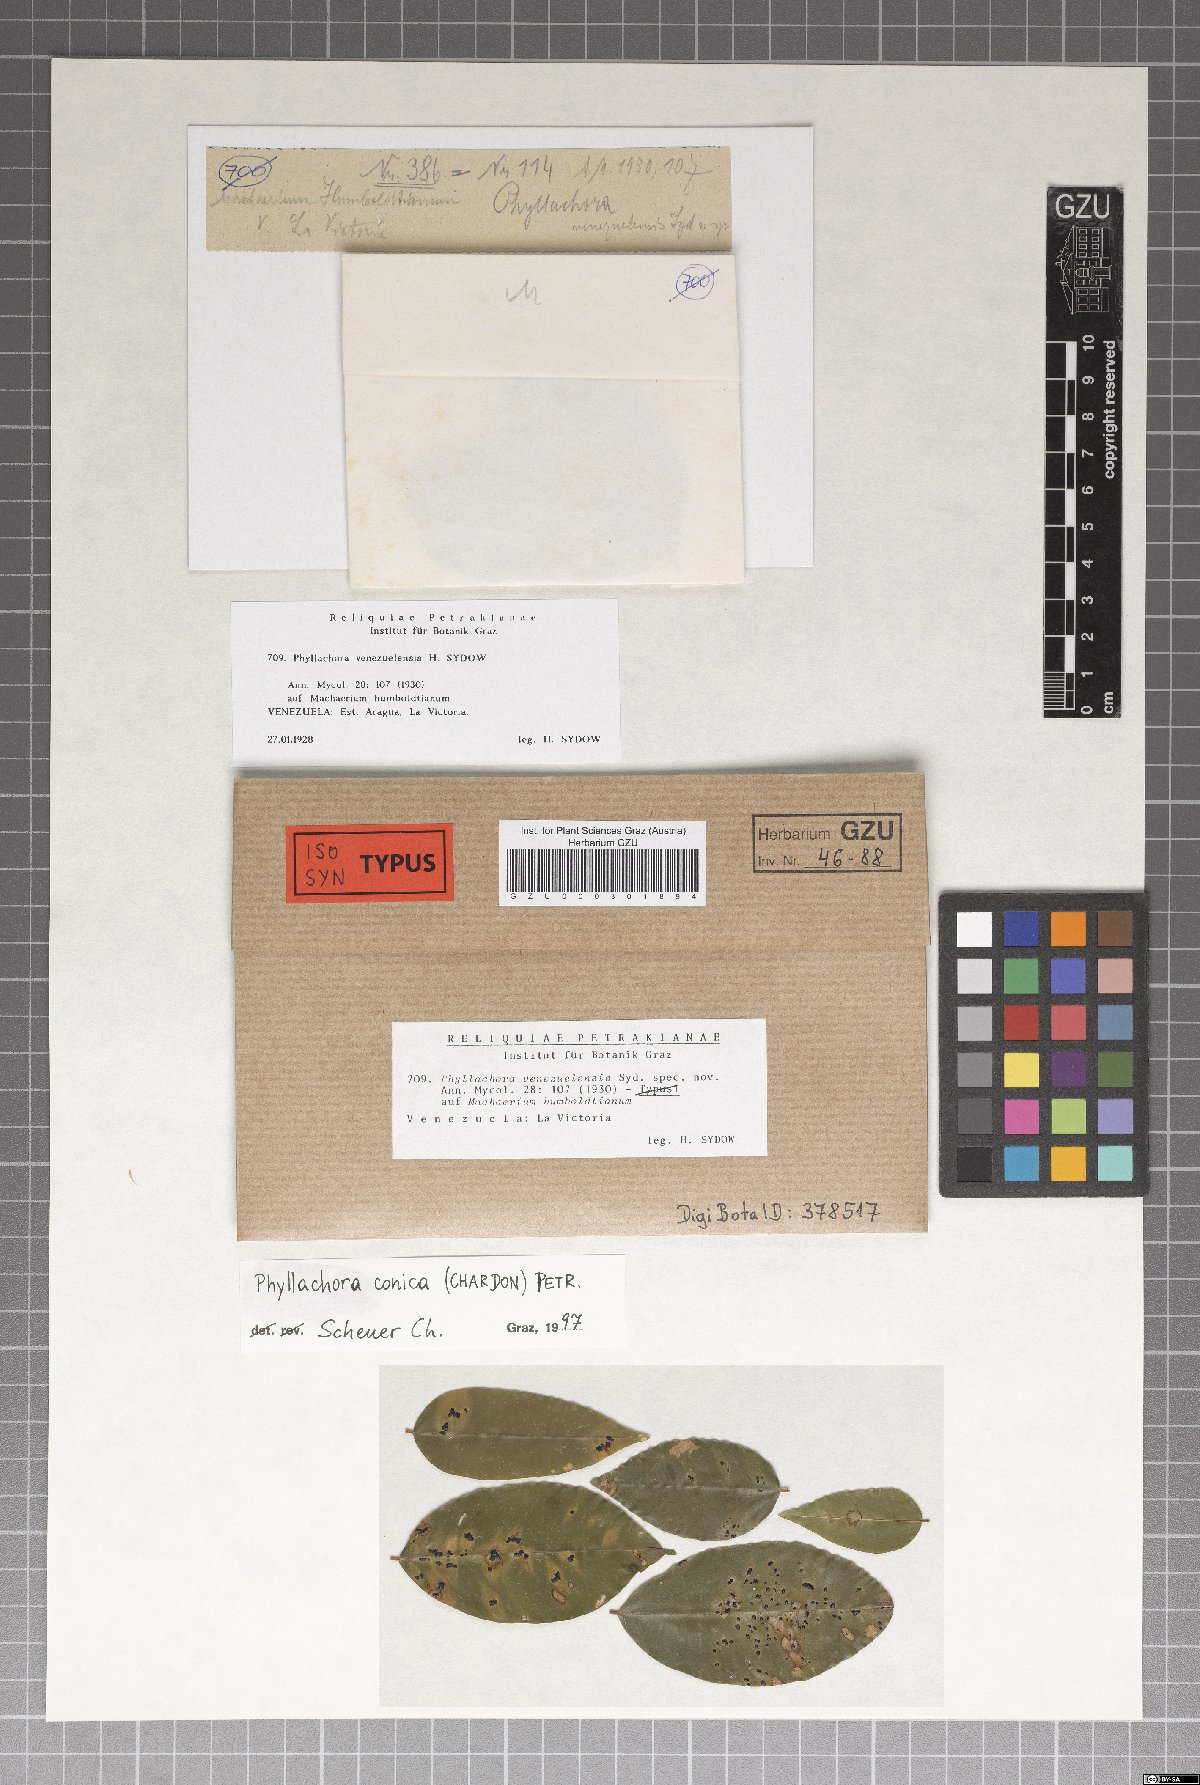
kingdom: Fungi
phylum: Ascomycota
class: Sordariomycetes
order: Phyllachorales
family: Phyllachoraceae
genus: Phyllachora
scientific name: Phyllachora conica
